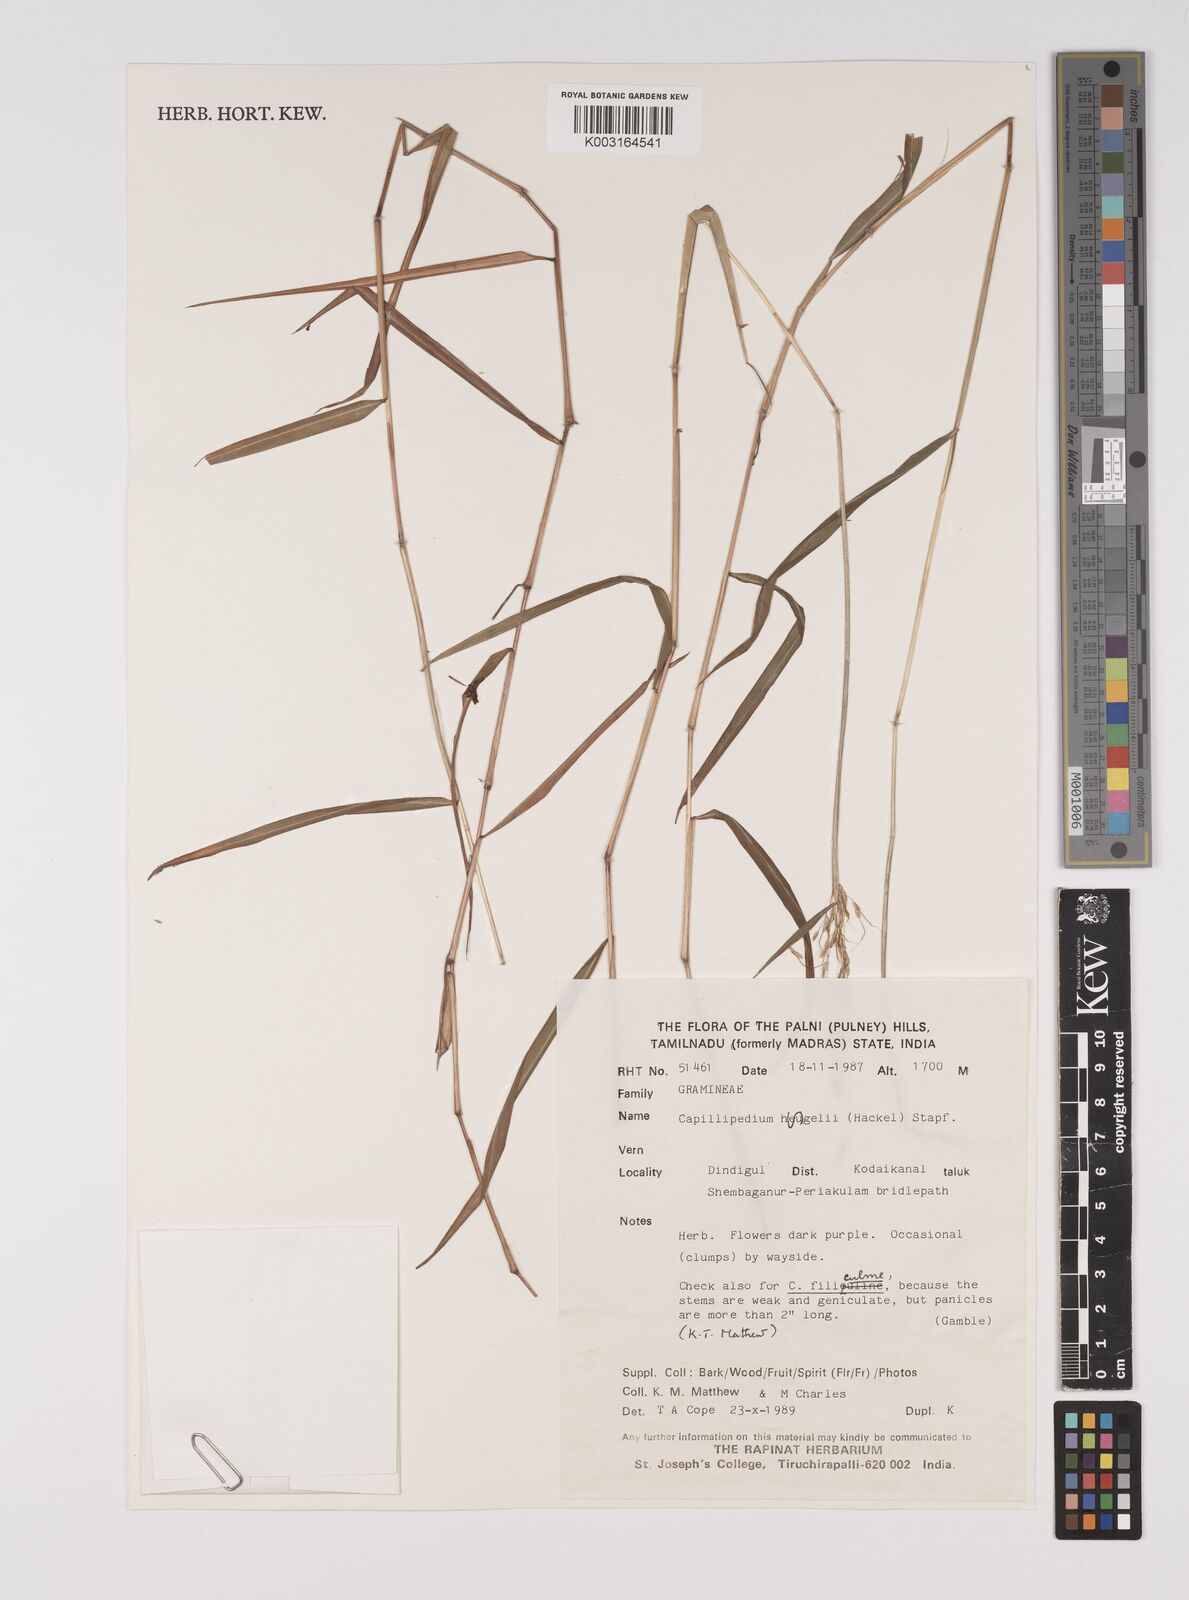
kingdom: Plantae
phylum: Tracheophyta
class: Liliopsida
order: Poales
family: Poaceae
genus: Capillipedium
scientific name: Capillipedium huegelii
